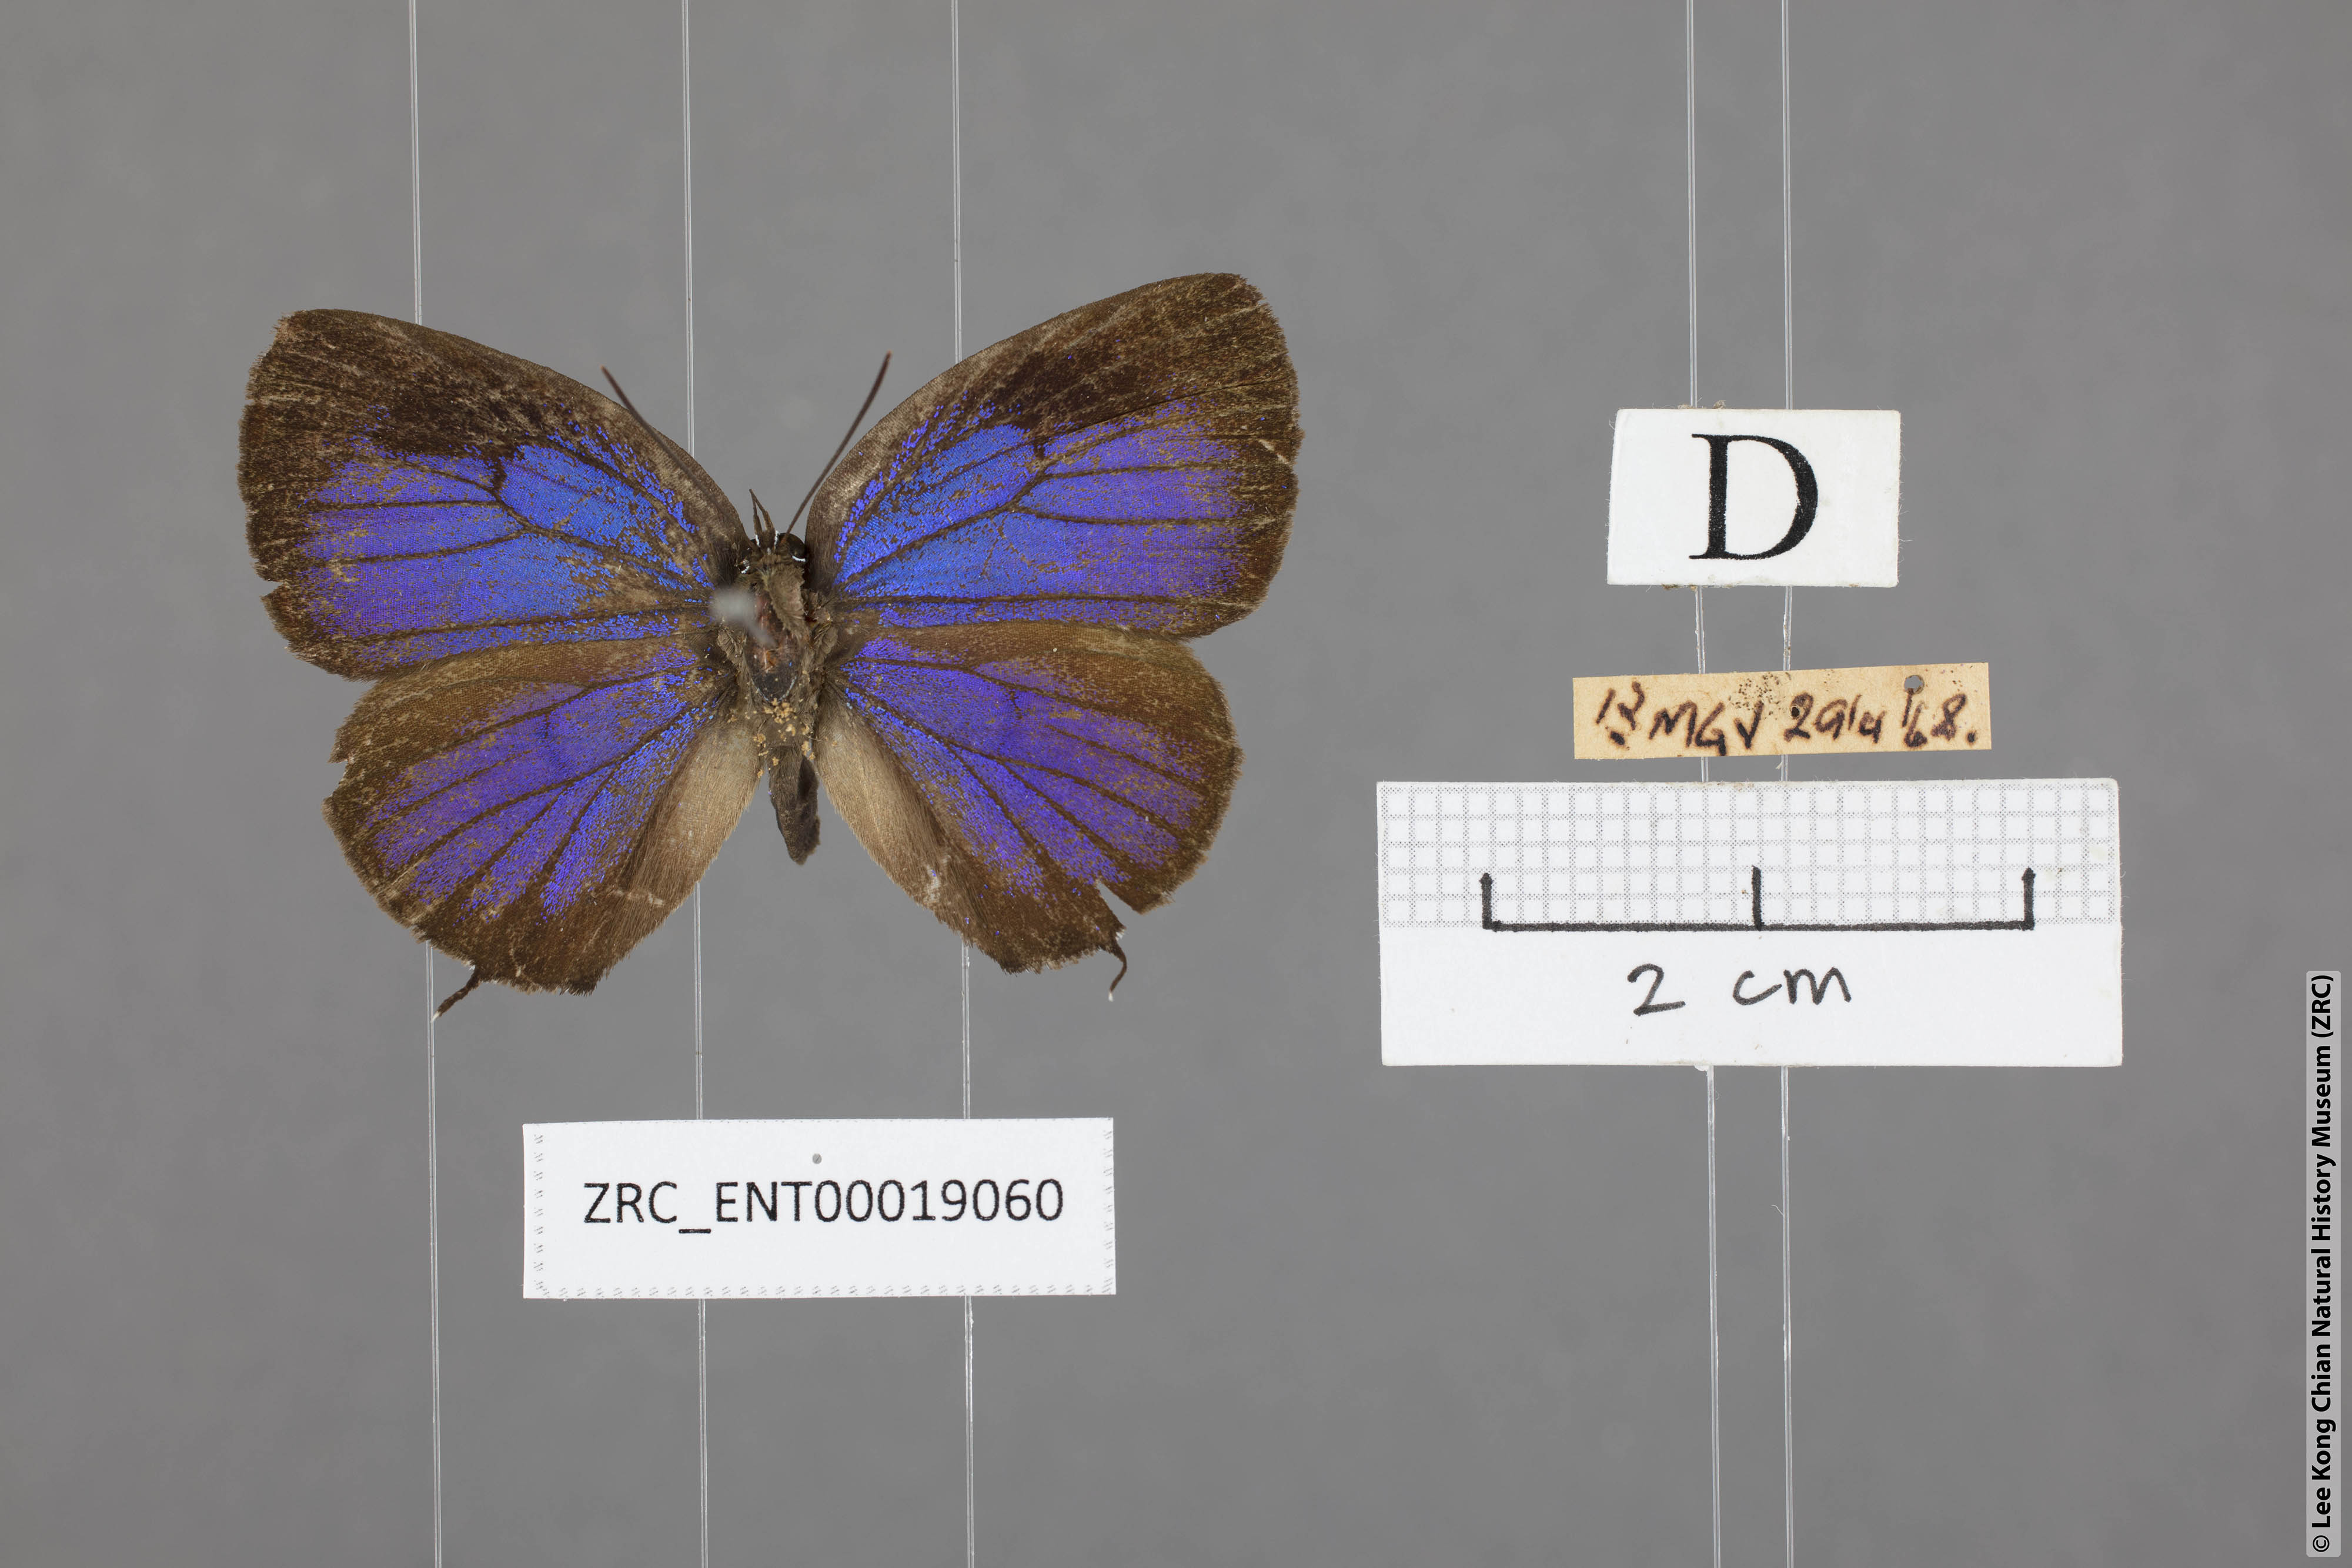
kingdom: Animalia
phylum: Arthropoda
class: Insecta
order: Lepidoptera
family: Lycaenidae
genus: Arhopala
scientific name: Arhopala agrata
